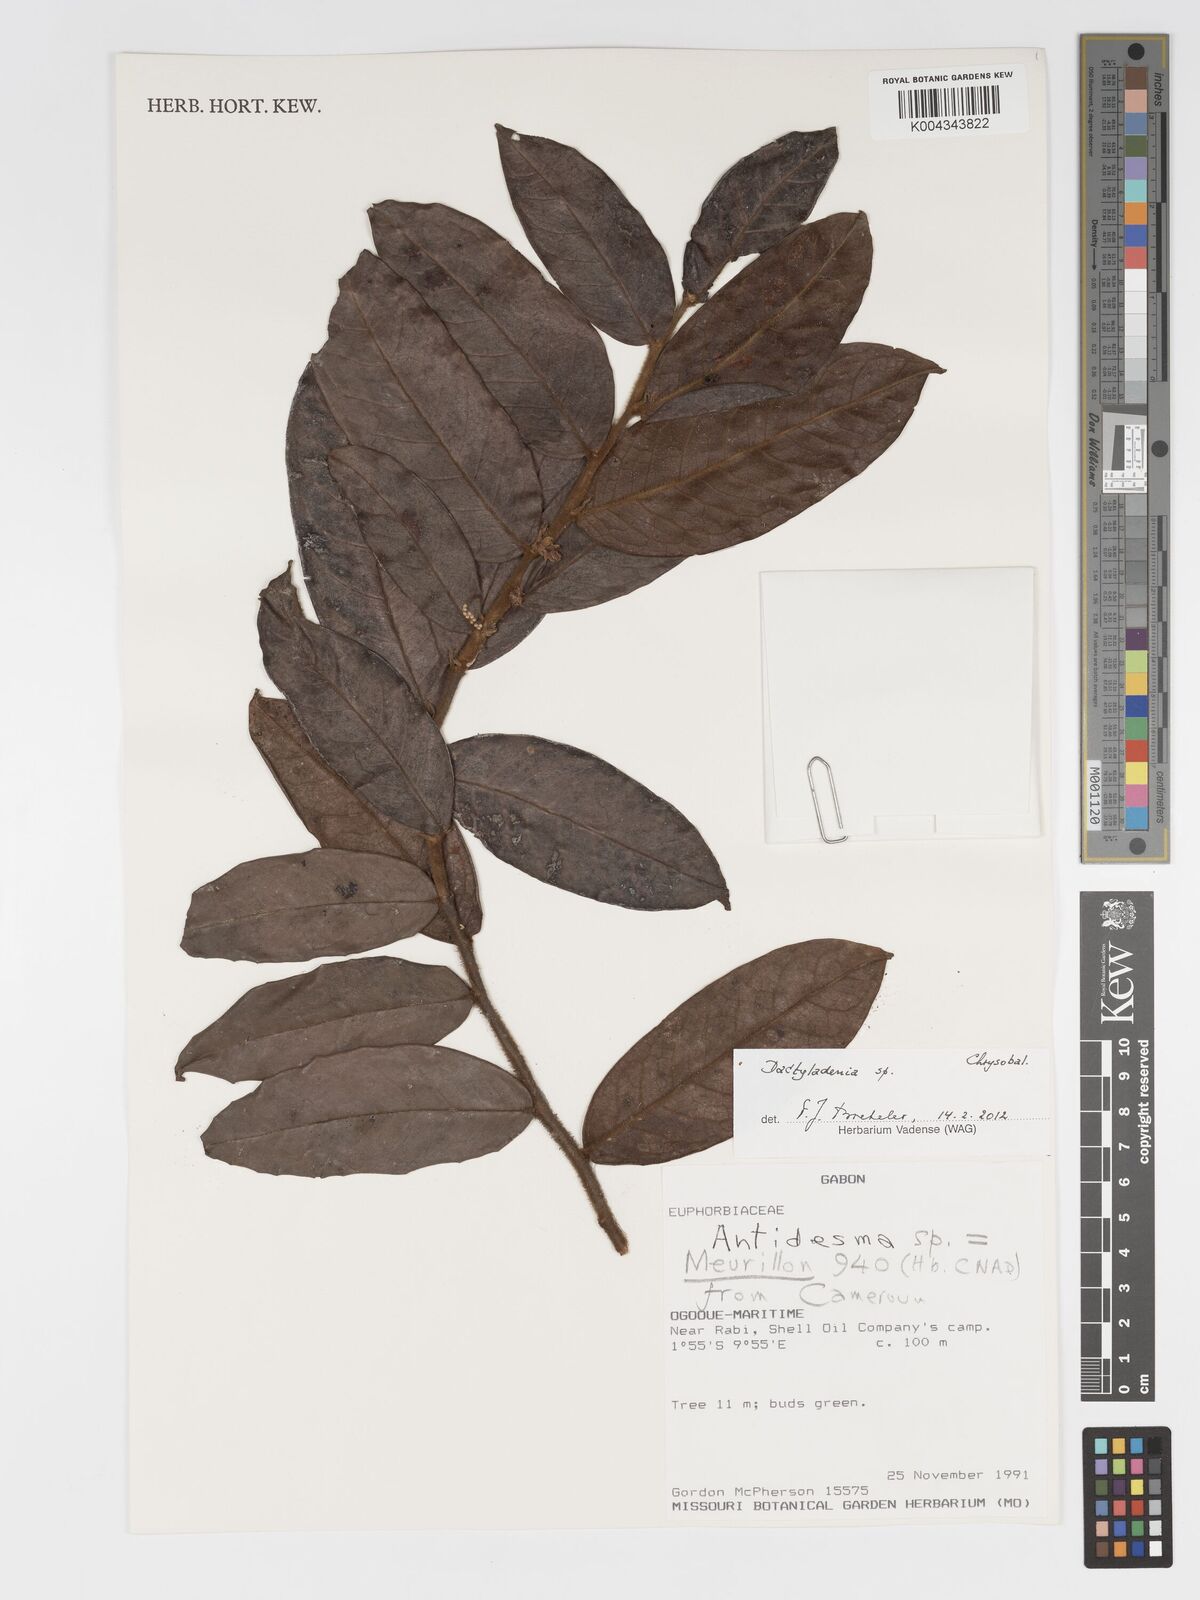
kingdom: Plantae
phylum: Tracheophyta
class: Magnoliopsida
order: Malpighiales
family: Chrysobalanaceae
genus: Dactyladenia
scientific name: Dactyladenia
